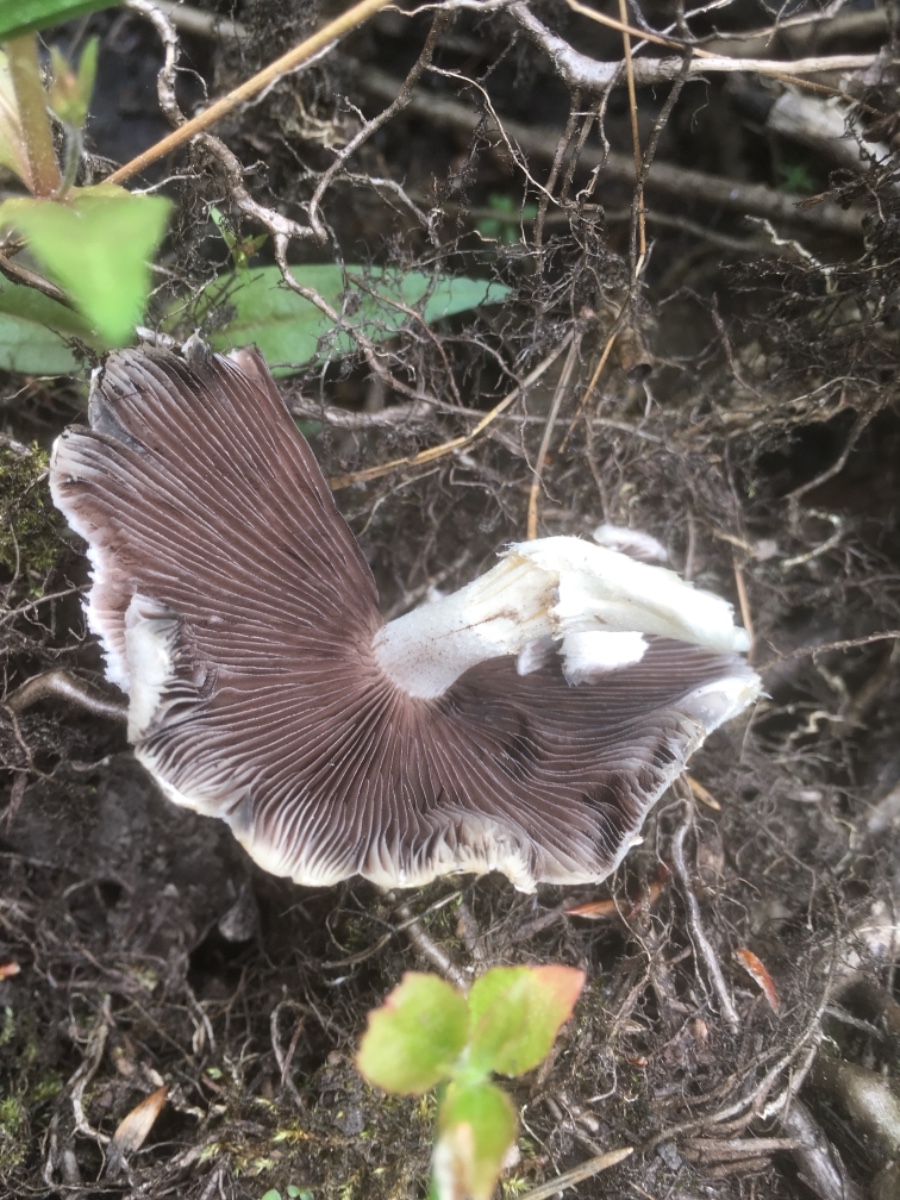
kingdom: Fungi
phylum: Basidiomycota
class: Agaricomycetes
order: Agaricales
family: Psathyrellaceae
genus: Candolleomyces
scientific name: Candolleomyces candolleanus
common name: Candolles mørkhat
